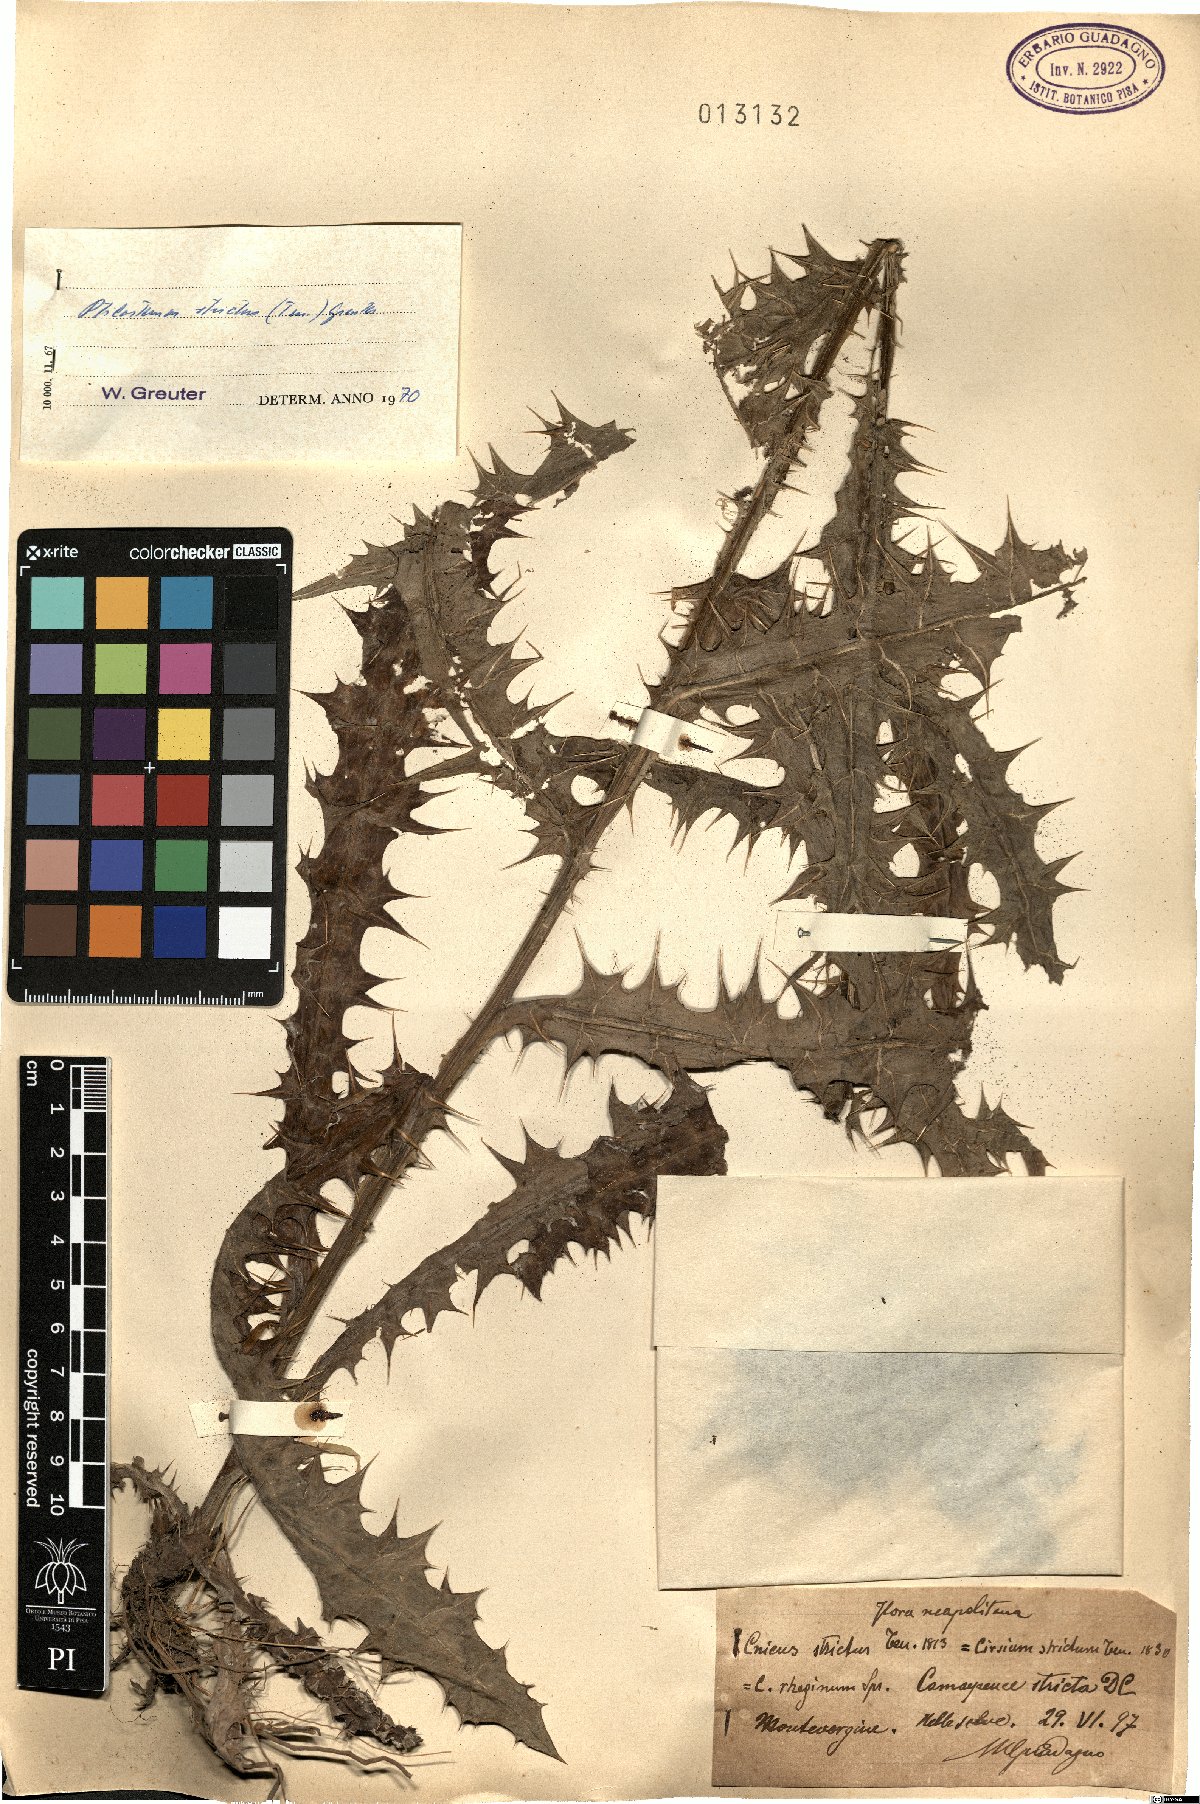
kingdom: Plantae
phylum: Tracheophyta
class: Magnoliopsida
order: Asterales
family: Asteraceae
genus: Ptilostemon
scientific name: Ptilostemon strictus
